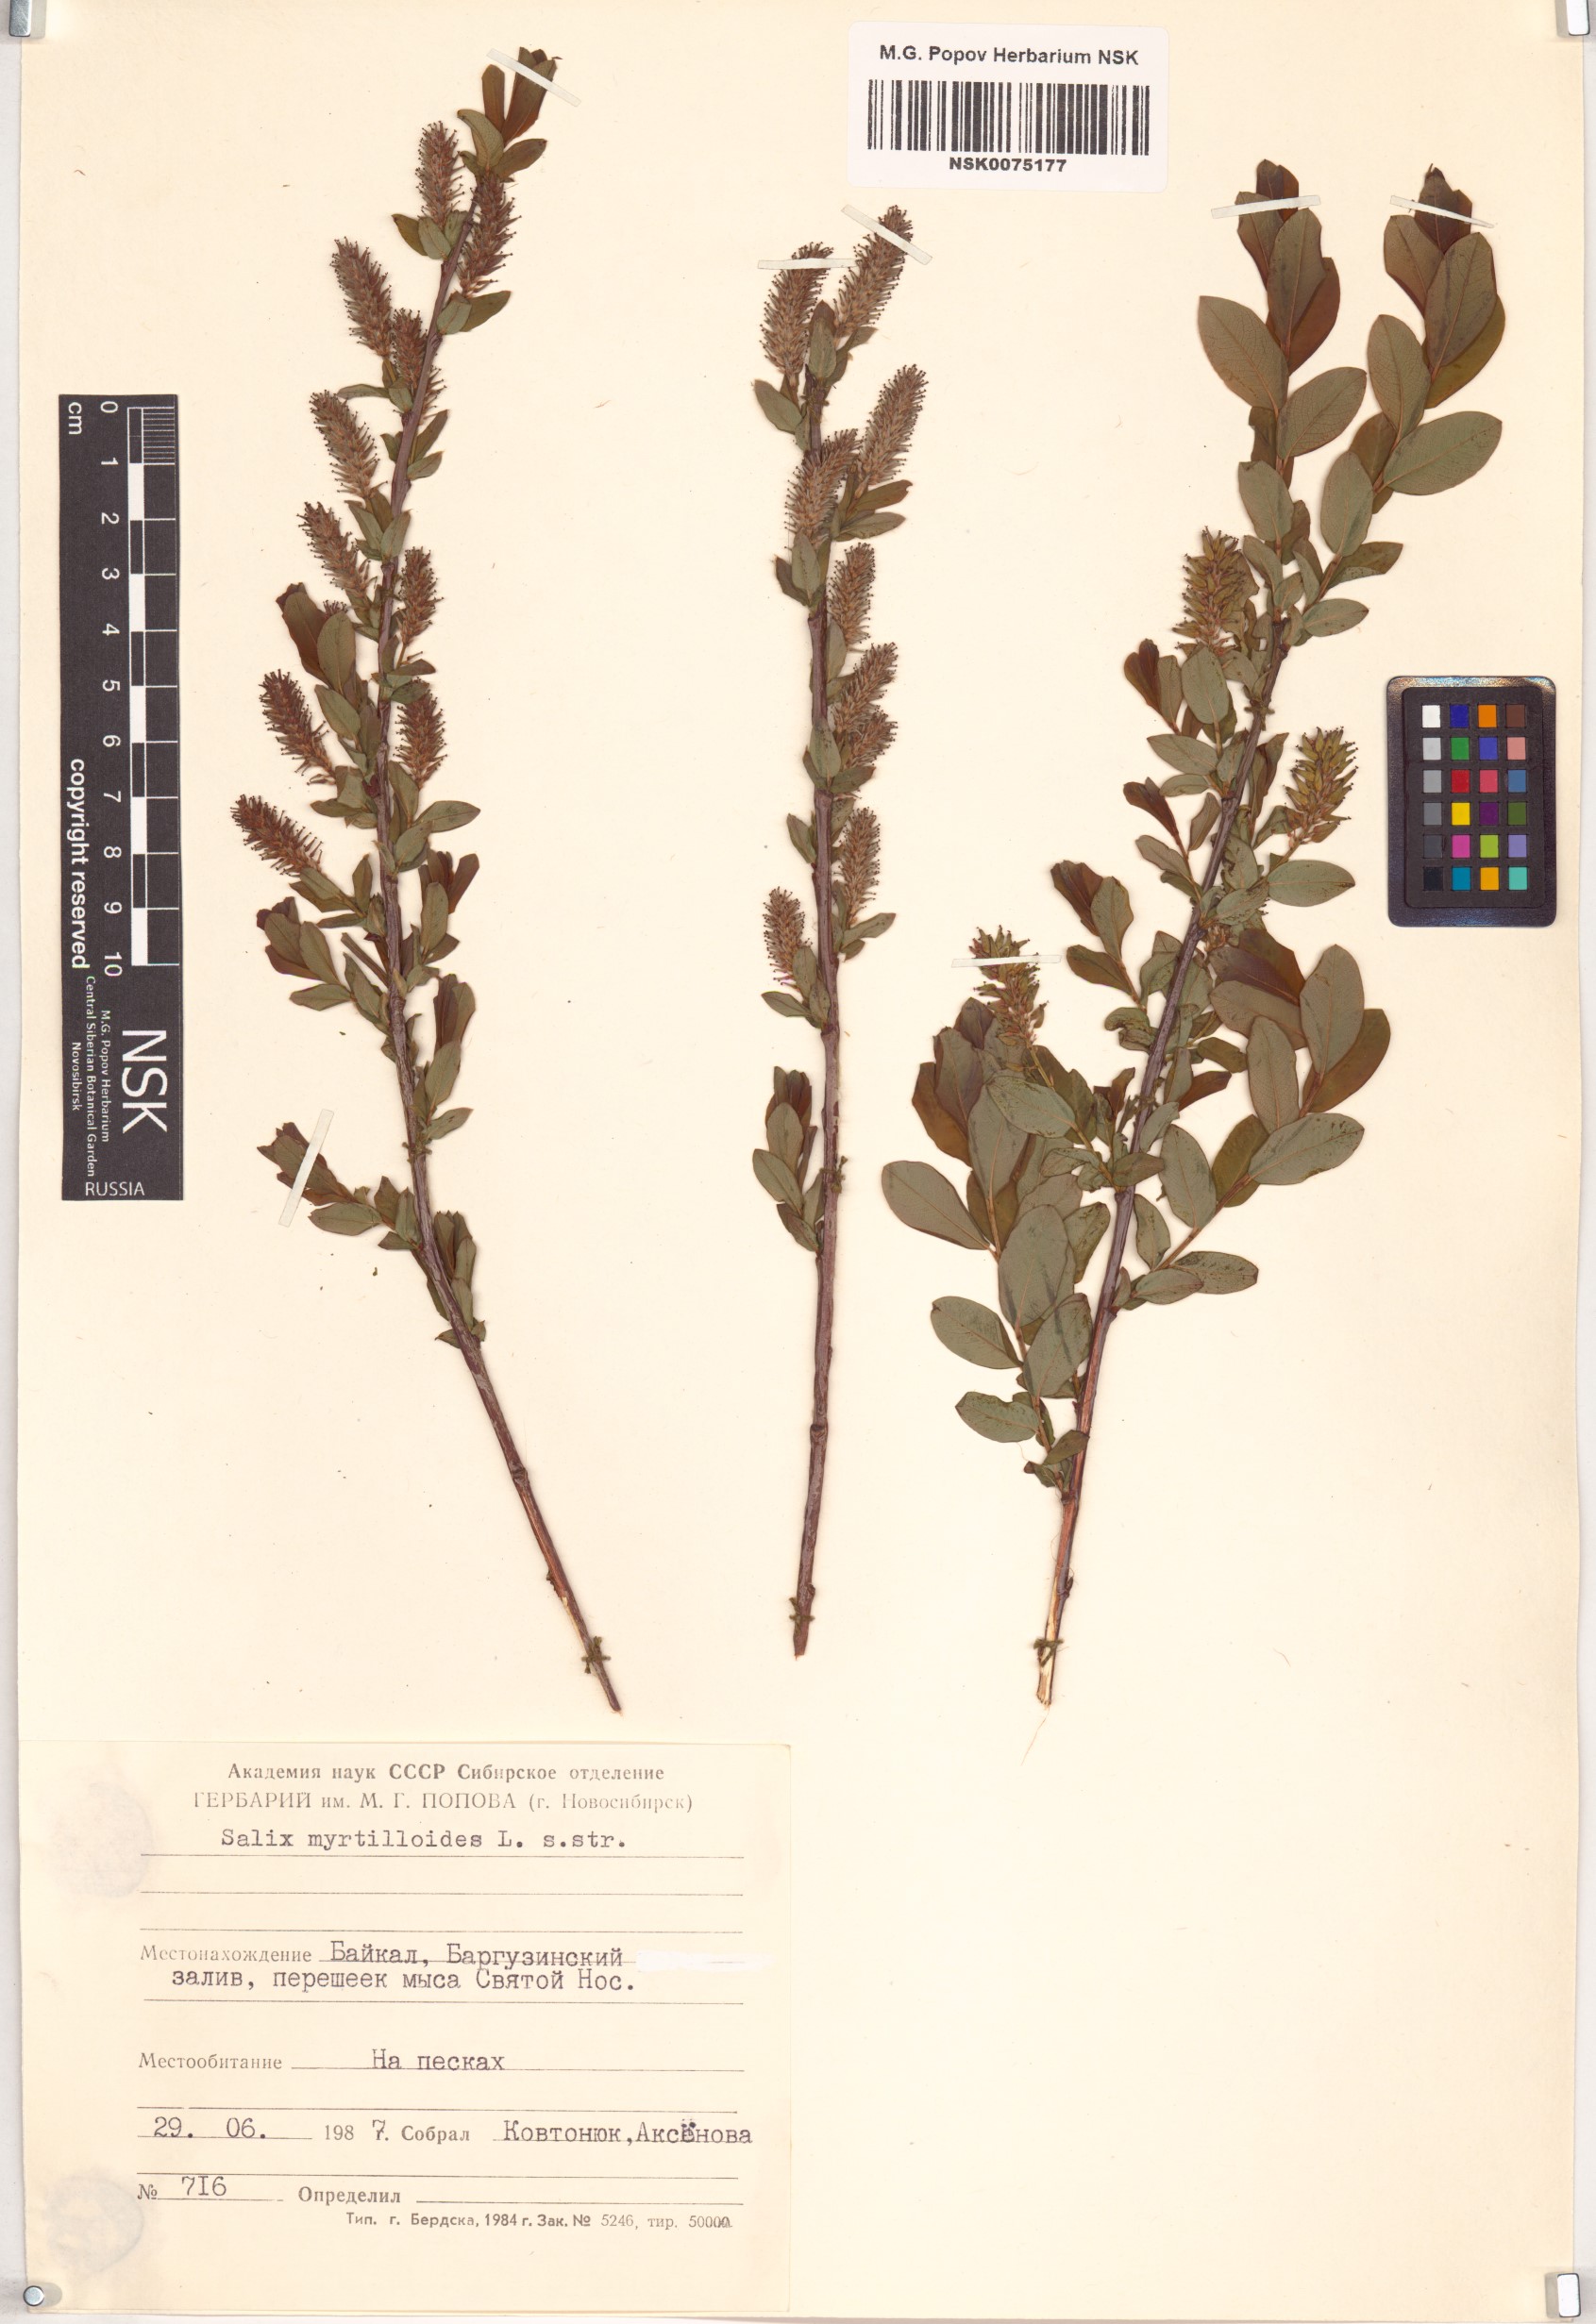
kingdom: Plantae
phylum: Tracheophyta
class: Magnoliopsida
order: Malpighiales
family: Salicaceae
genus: Salix
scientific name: Salix myrtilloides
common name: Myrtle-leaved willow
